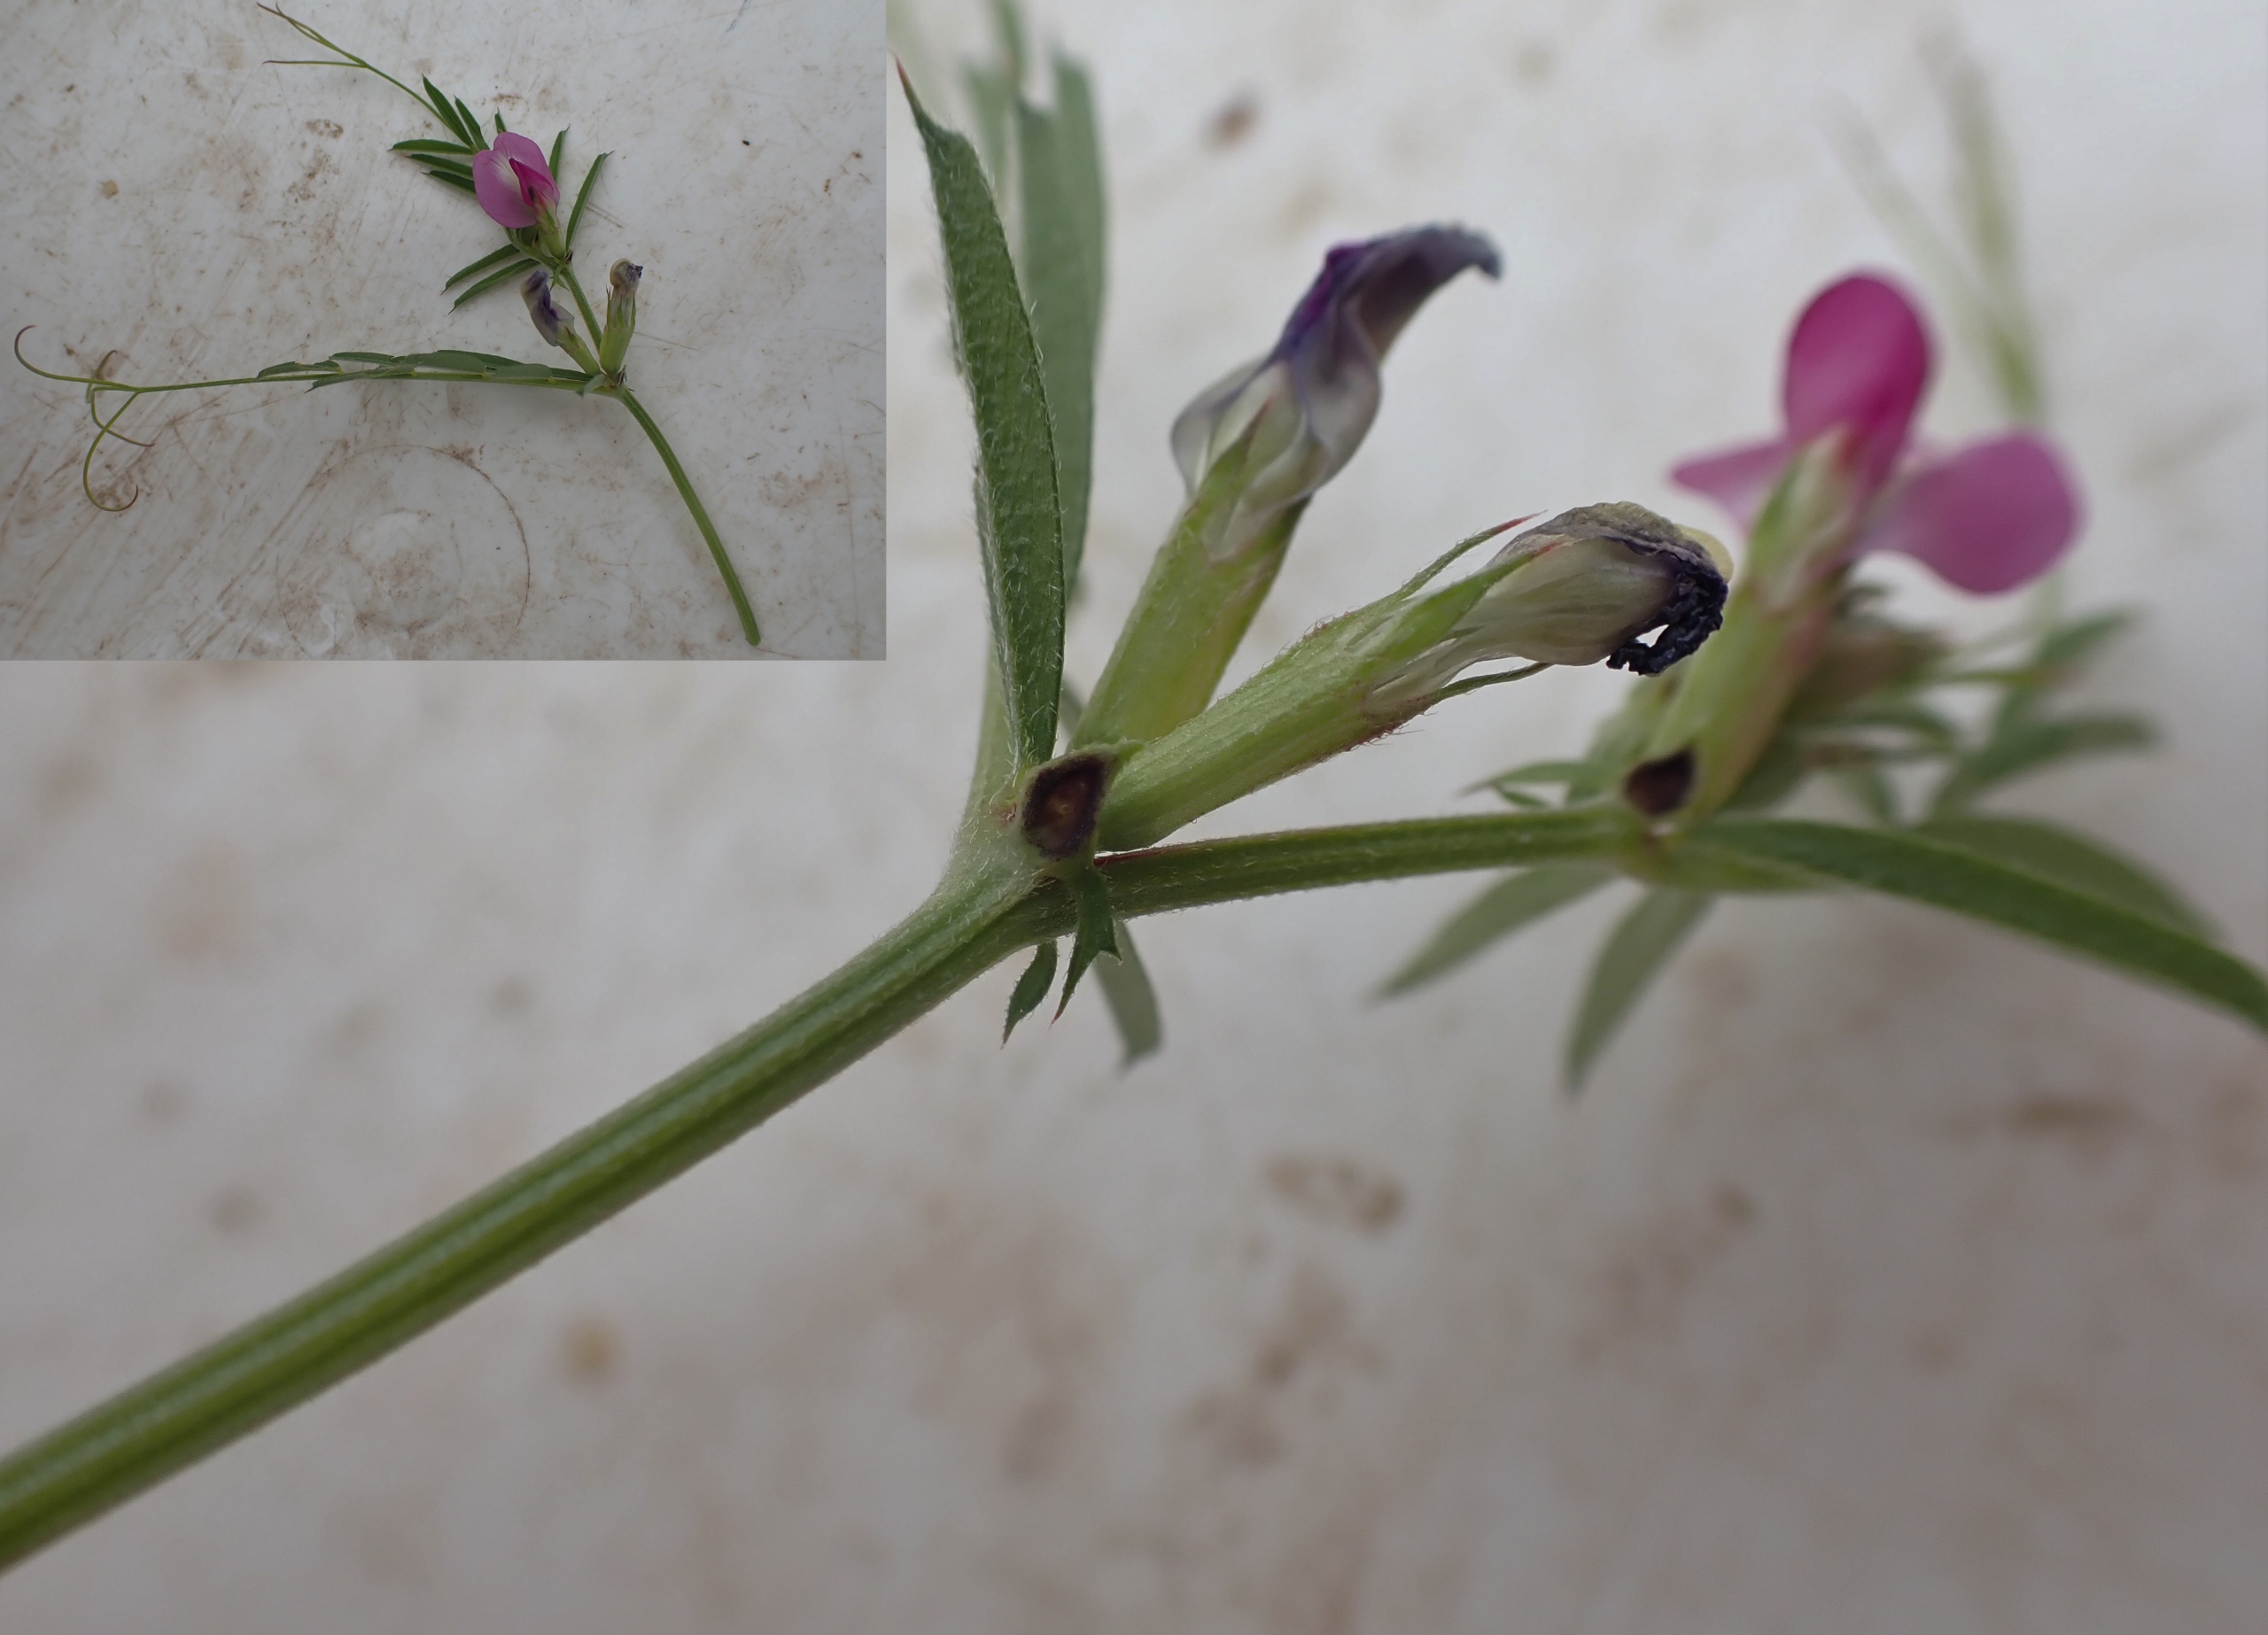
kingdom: Plantae
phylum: Tracheophyta
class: Magnoliopsida
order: Fabales
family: Fabaceae
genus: Vicia
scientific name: Vicia sativa
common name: Smalbladet vikke
